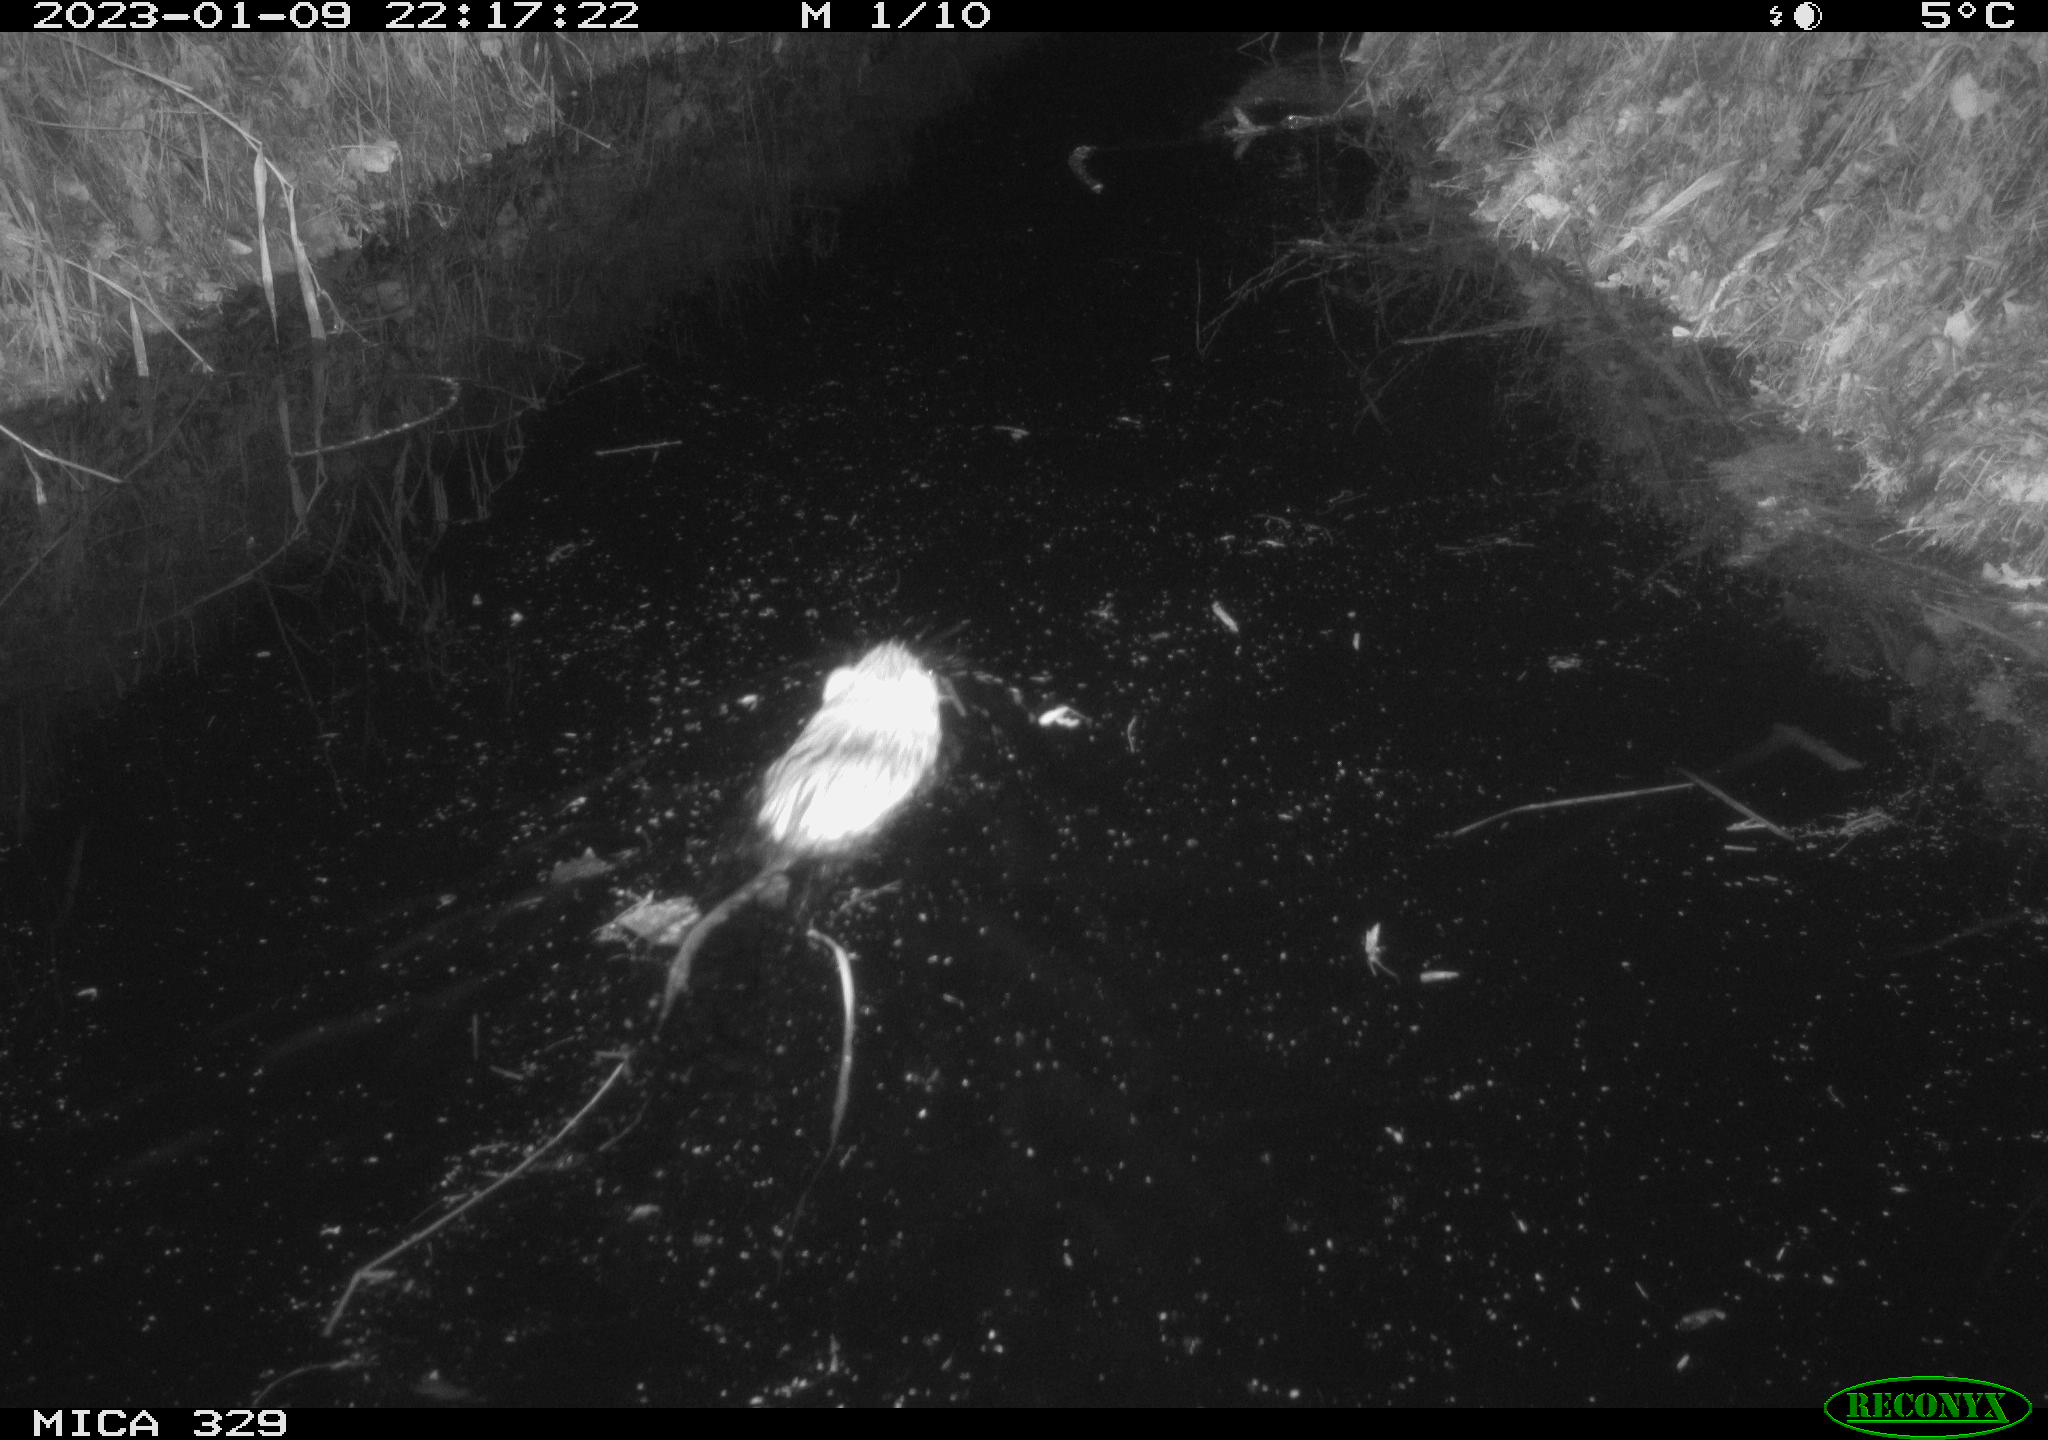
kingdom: Animalia
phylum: Chordata
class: Mammalia
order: Rodentia
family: Cricetidae
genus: Ondatra
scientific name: Ondatra zibethicus
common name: Muskrat
